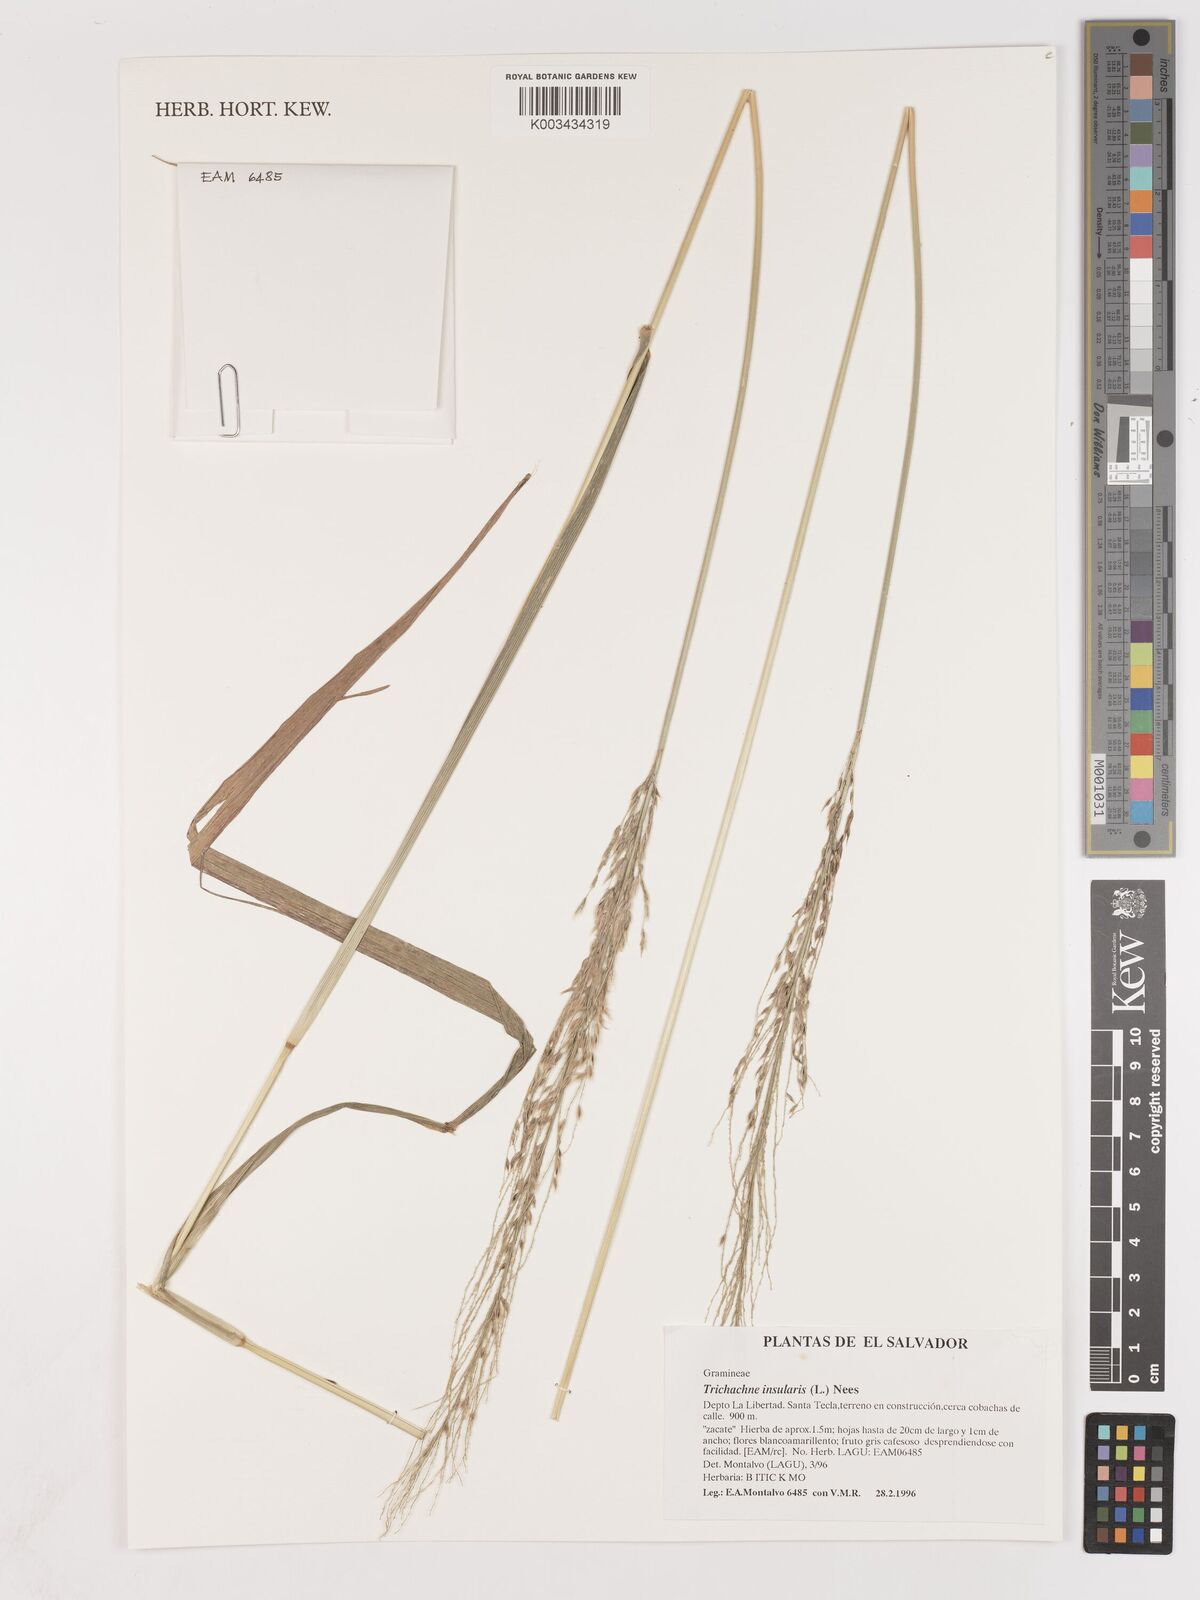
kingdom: Plantae
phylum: Tracheophyta
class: Liliopsida
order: Poales
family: Poaceae
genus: Digitaria
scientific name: Digitaria insularis
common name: Sourgrass
